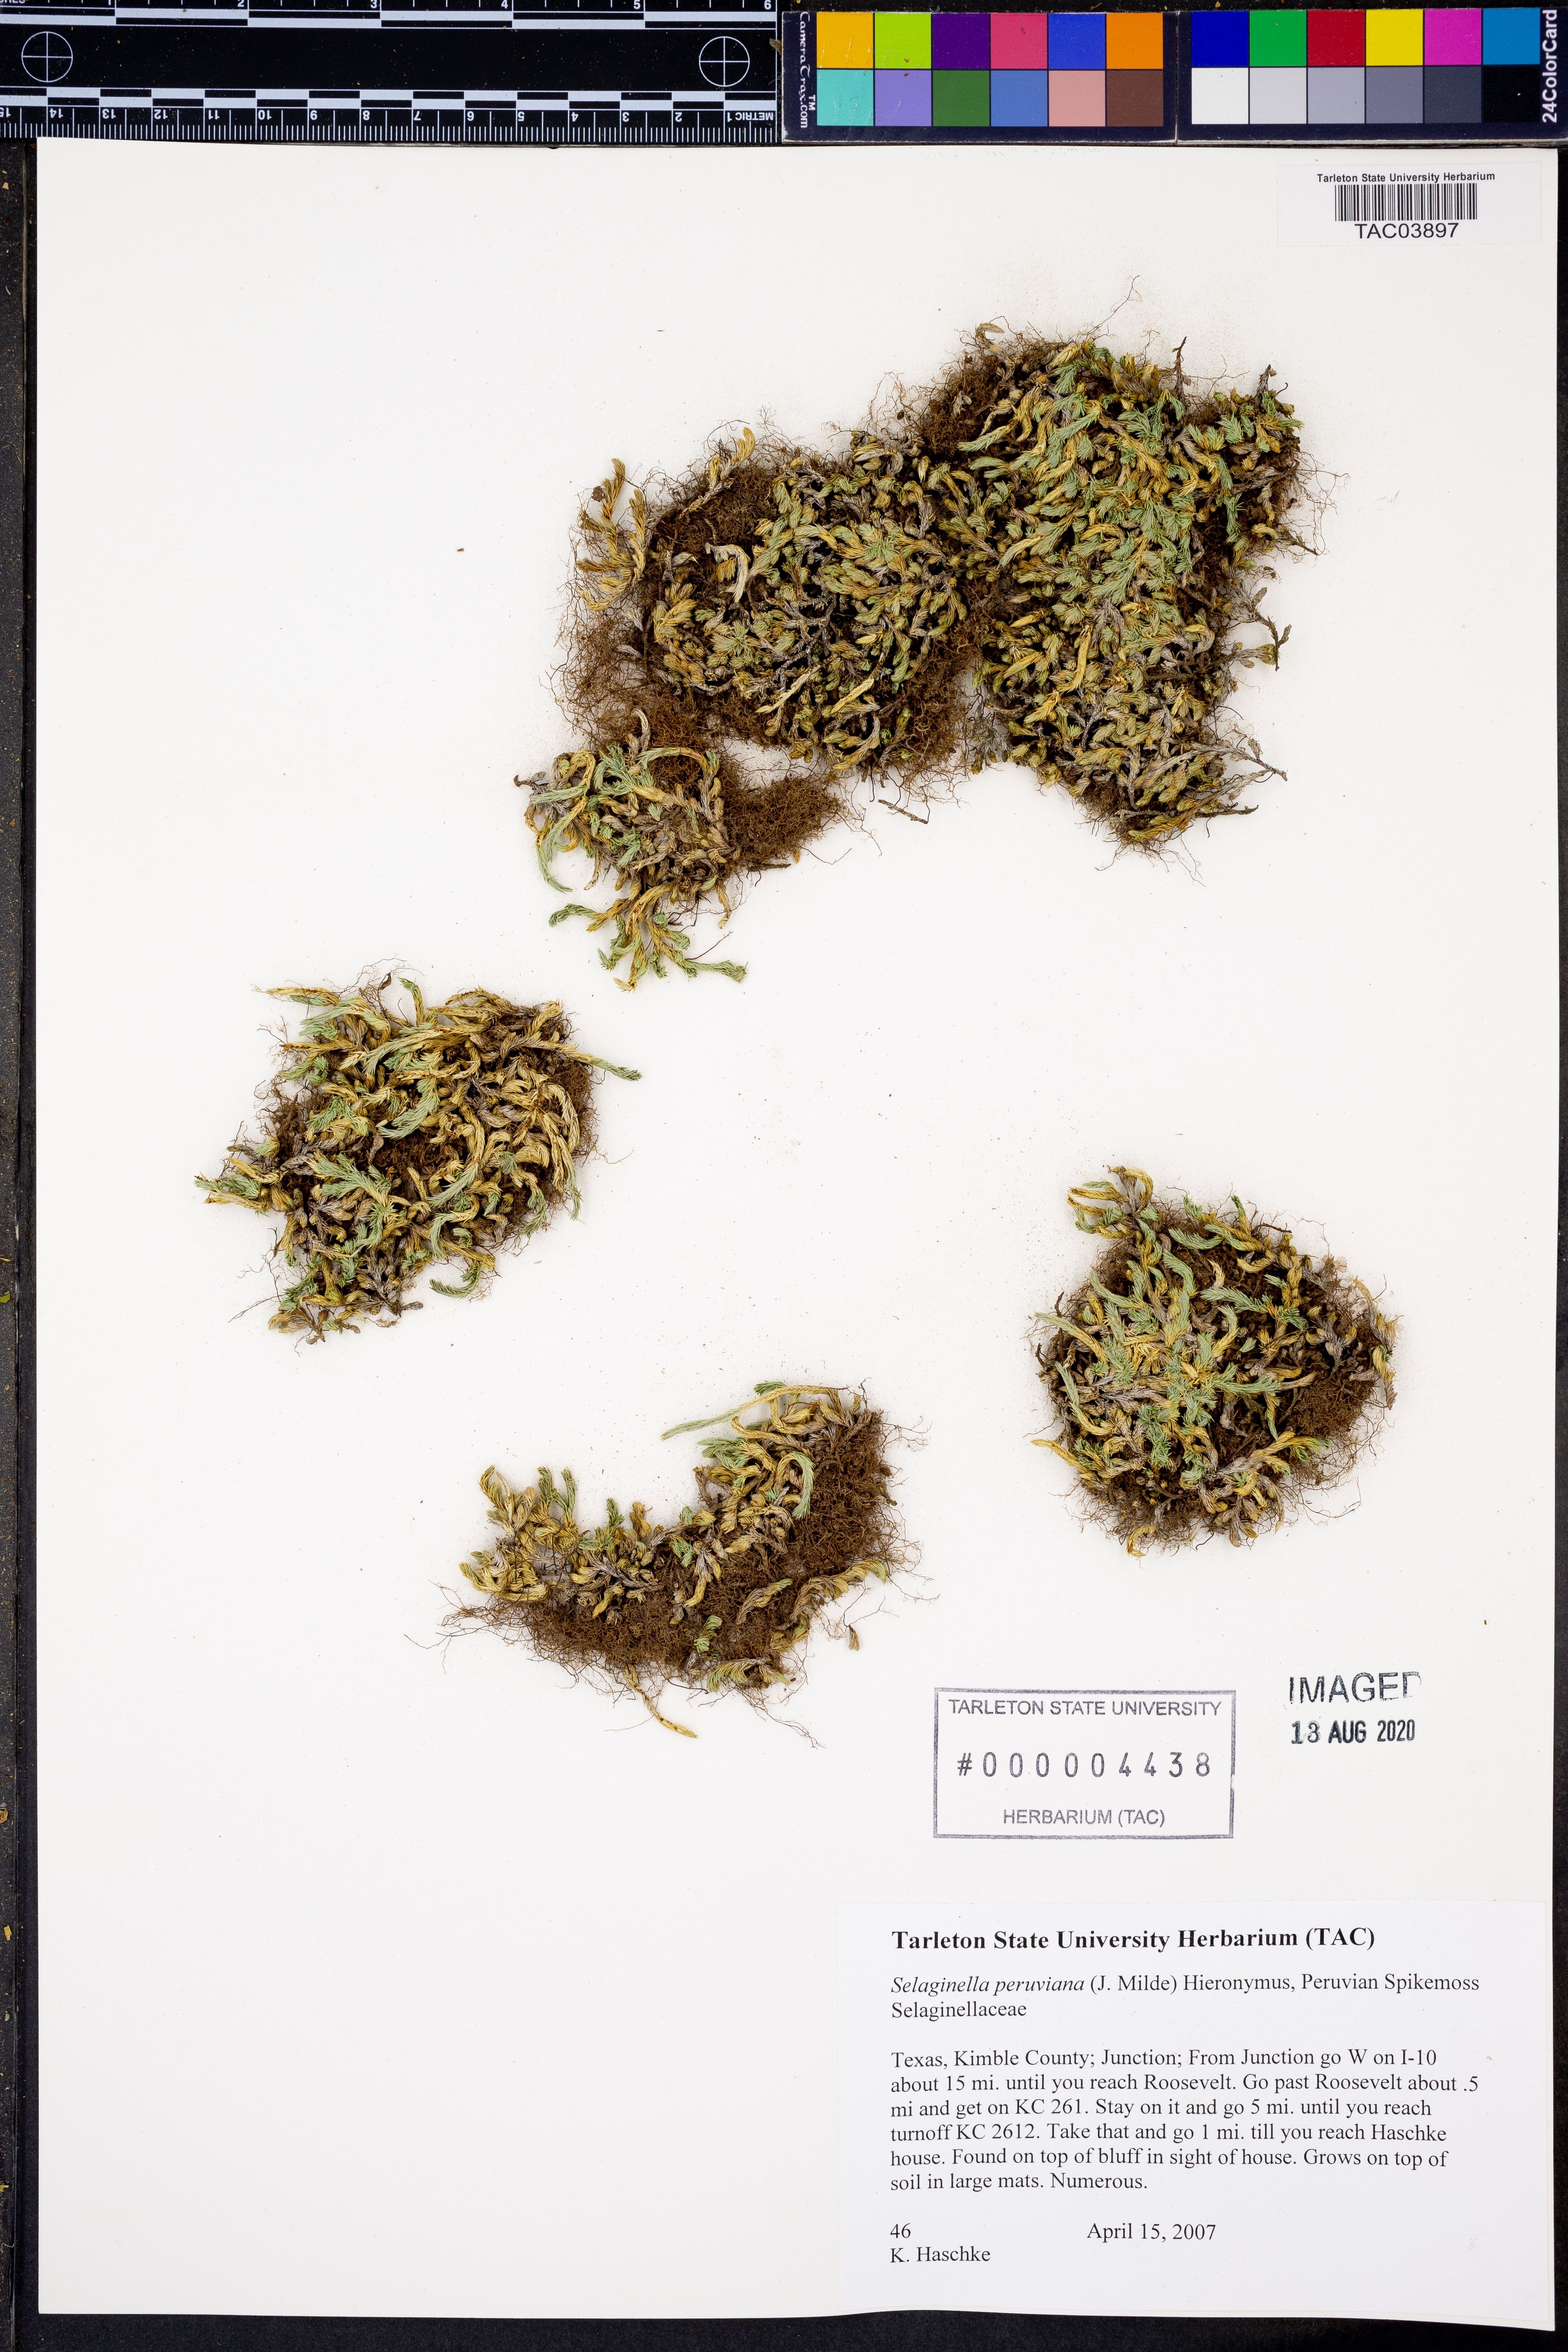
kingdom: Plantae
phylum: Tracheophyta
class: Lycopodiopsida
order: Selaginellales
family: Selaginellaceae
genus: Selaginella
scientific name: Selaginella peruviana
